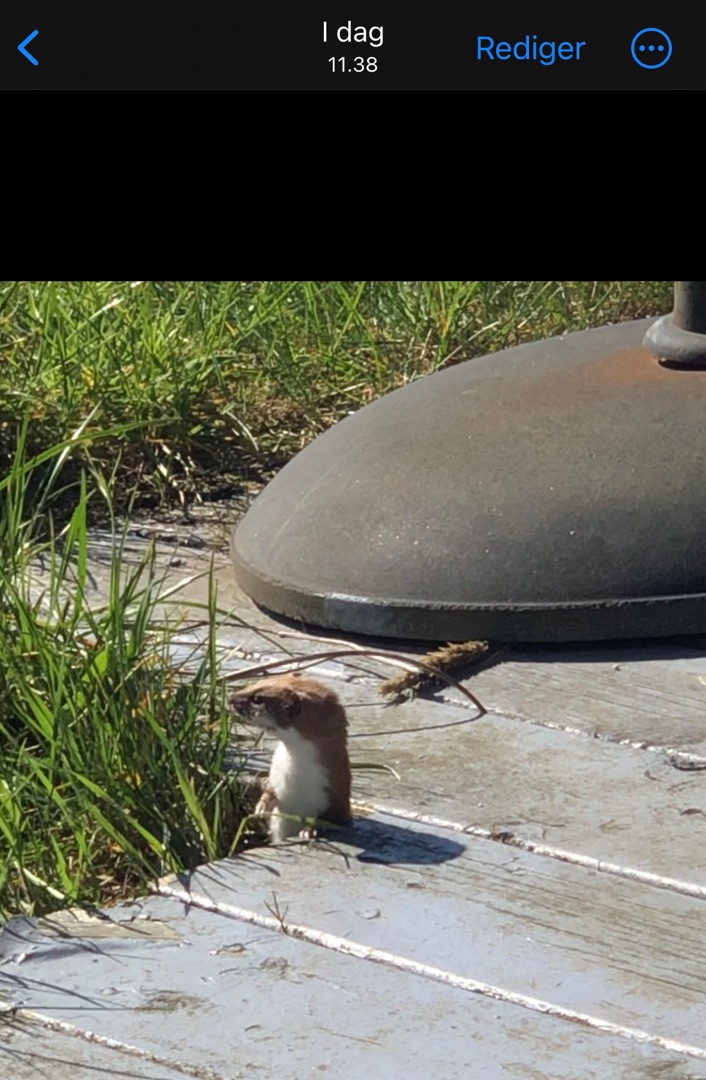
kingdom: Animalia
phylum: Chordata
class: Mammalia
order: Carnivora
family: Mustelidae
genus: Mustela
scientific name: Mustela nivalis
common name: Brud
